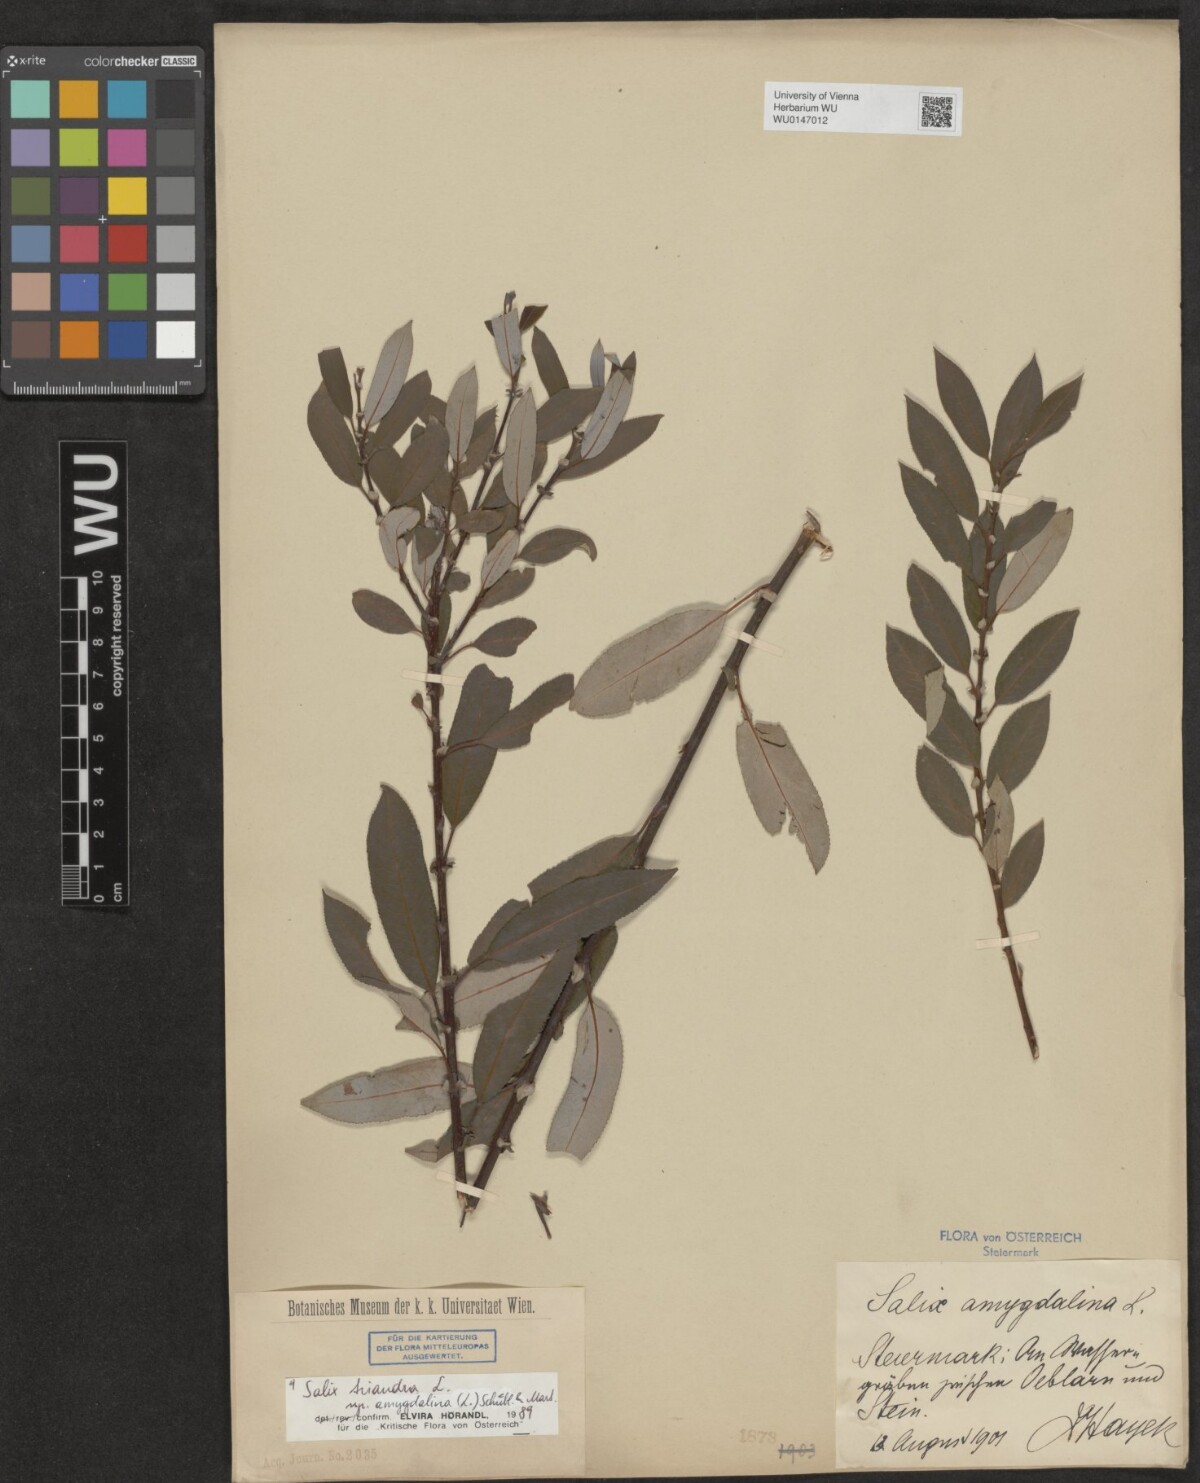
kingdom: Plantae
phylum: Tracheophyta
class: Magnoliopsida
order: Malpighiales
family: Salicaceae
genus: Salix
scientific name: Salix triandra
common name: Almond willow
